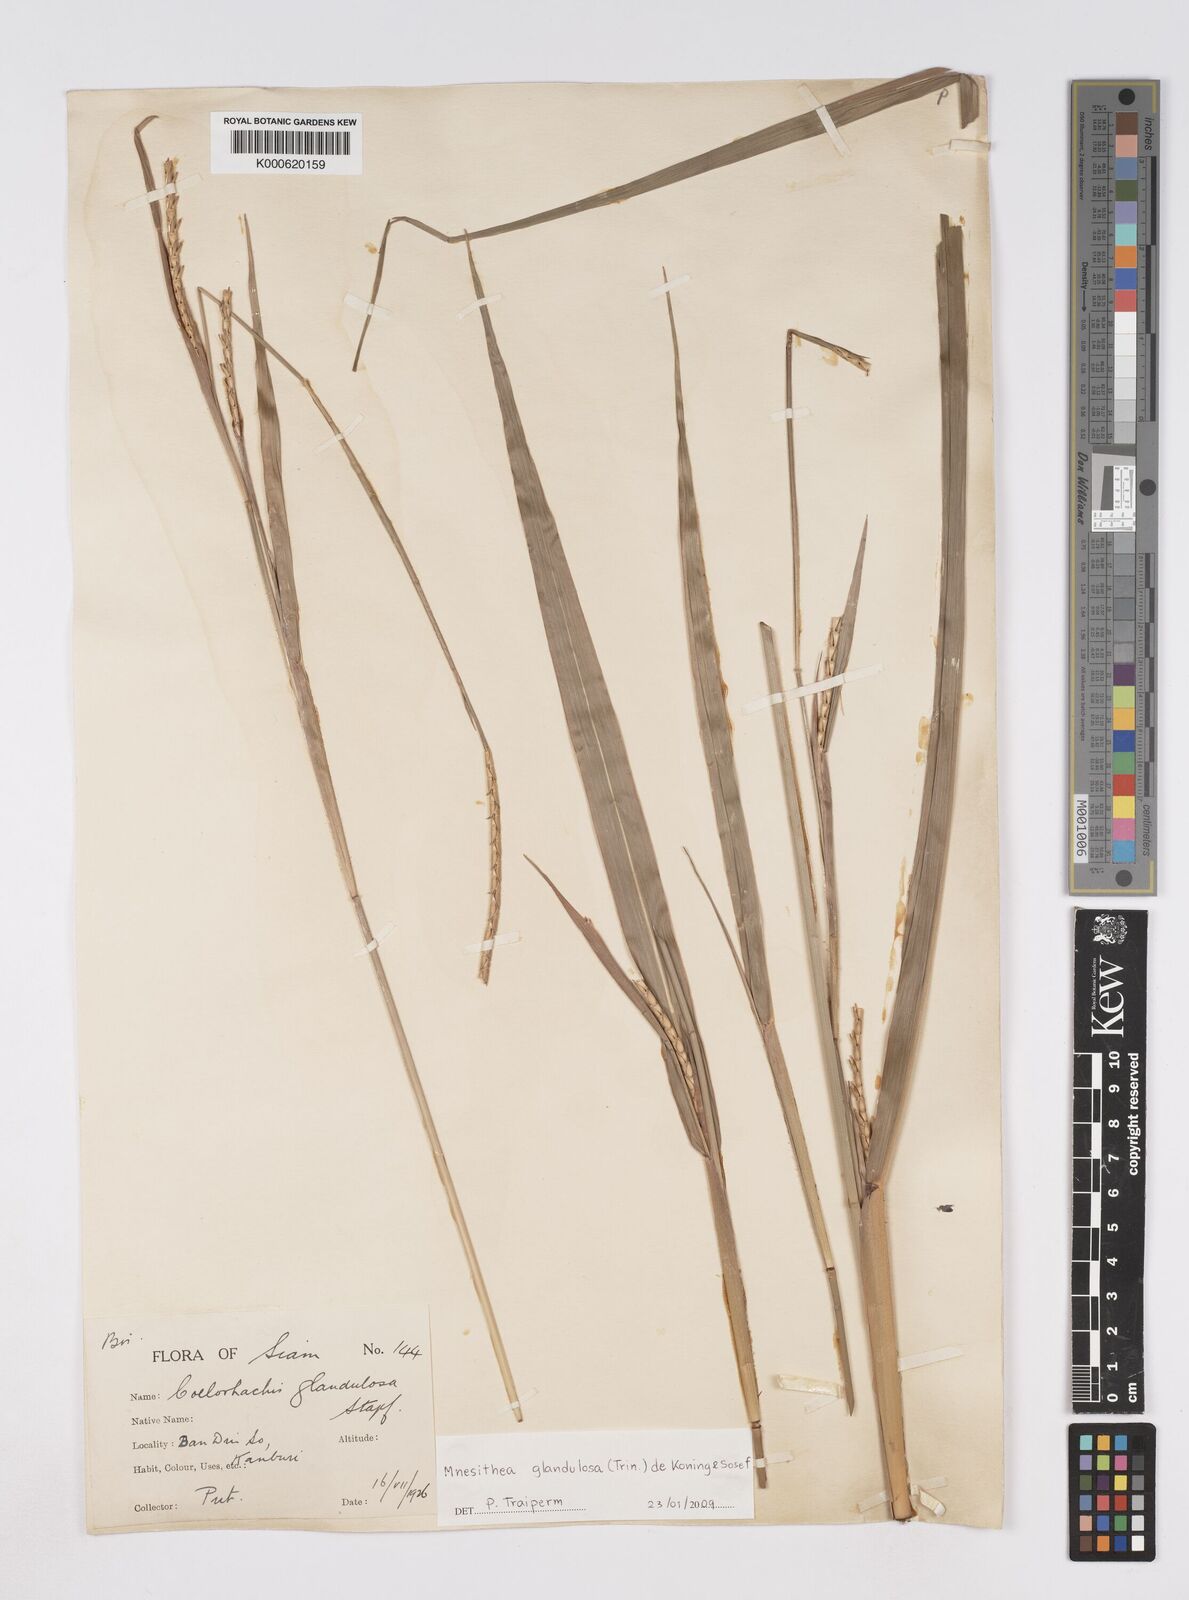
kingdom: Plantae
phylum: Tracheophyta
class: Liliopsida
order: Poales
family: Poaceae
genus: Rottboellia
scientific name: Rottboellia glandulosa
